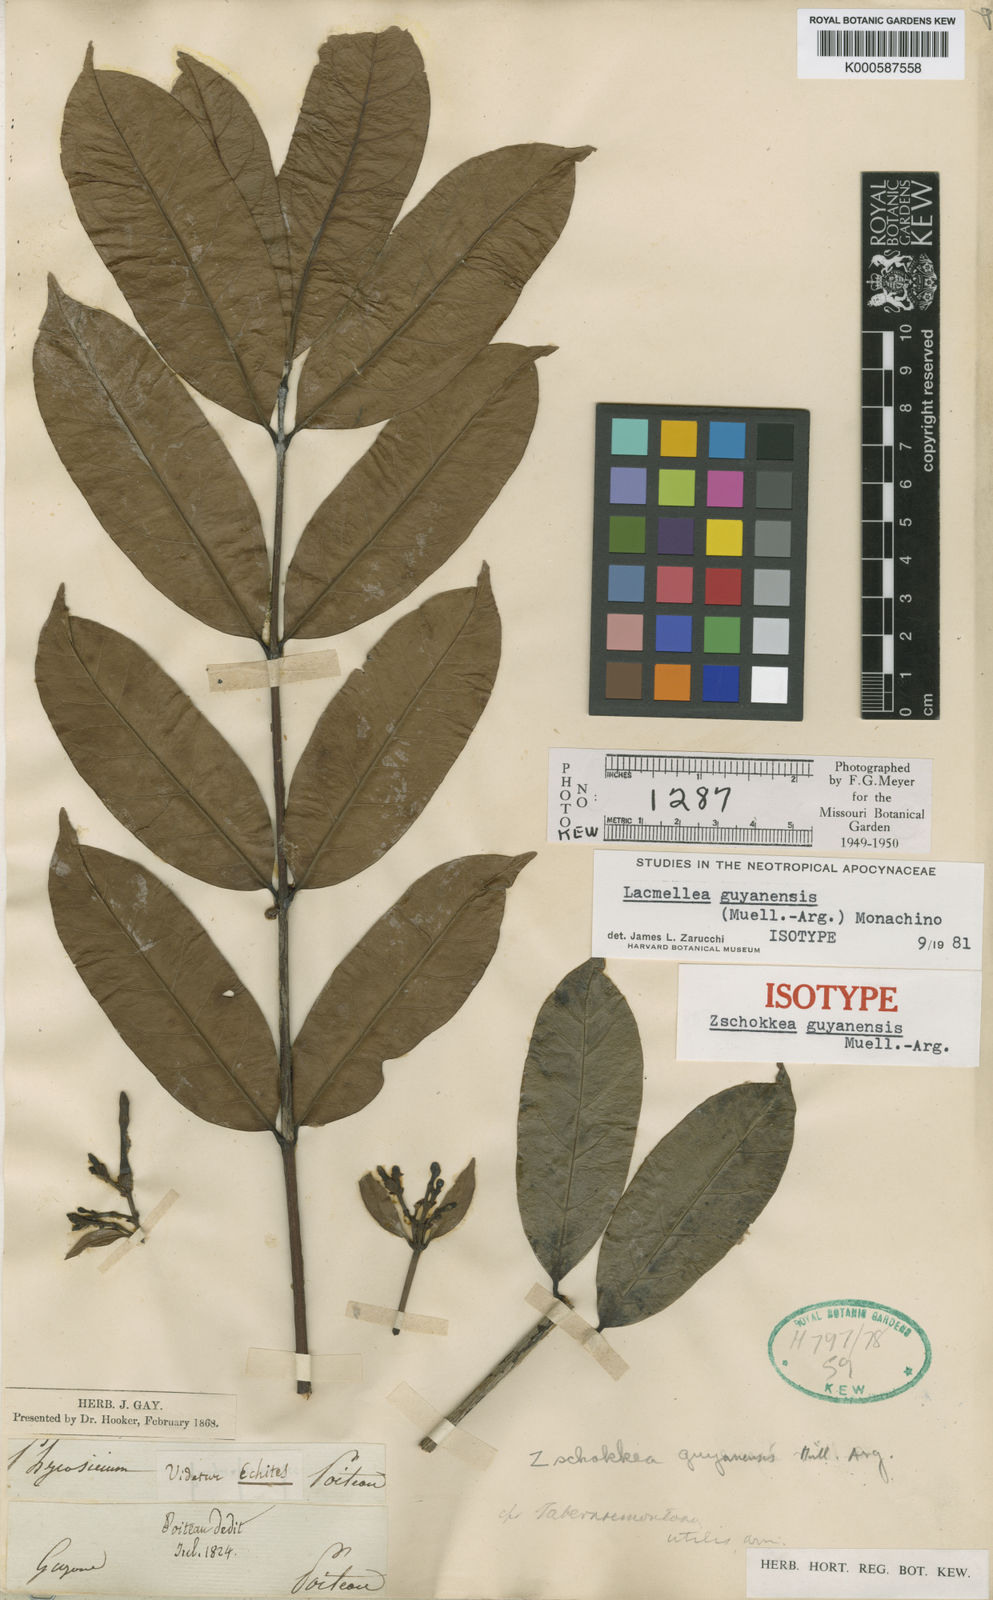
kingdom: Plantae
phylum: Tracheophyta
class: Magnoliopsida
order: Gentianales
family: Apocynaceae
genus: Lacmellea
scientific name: Lacmellea
